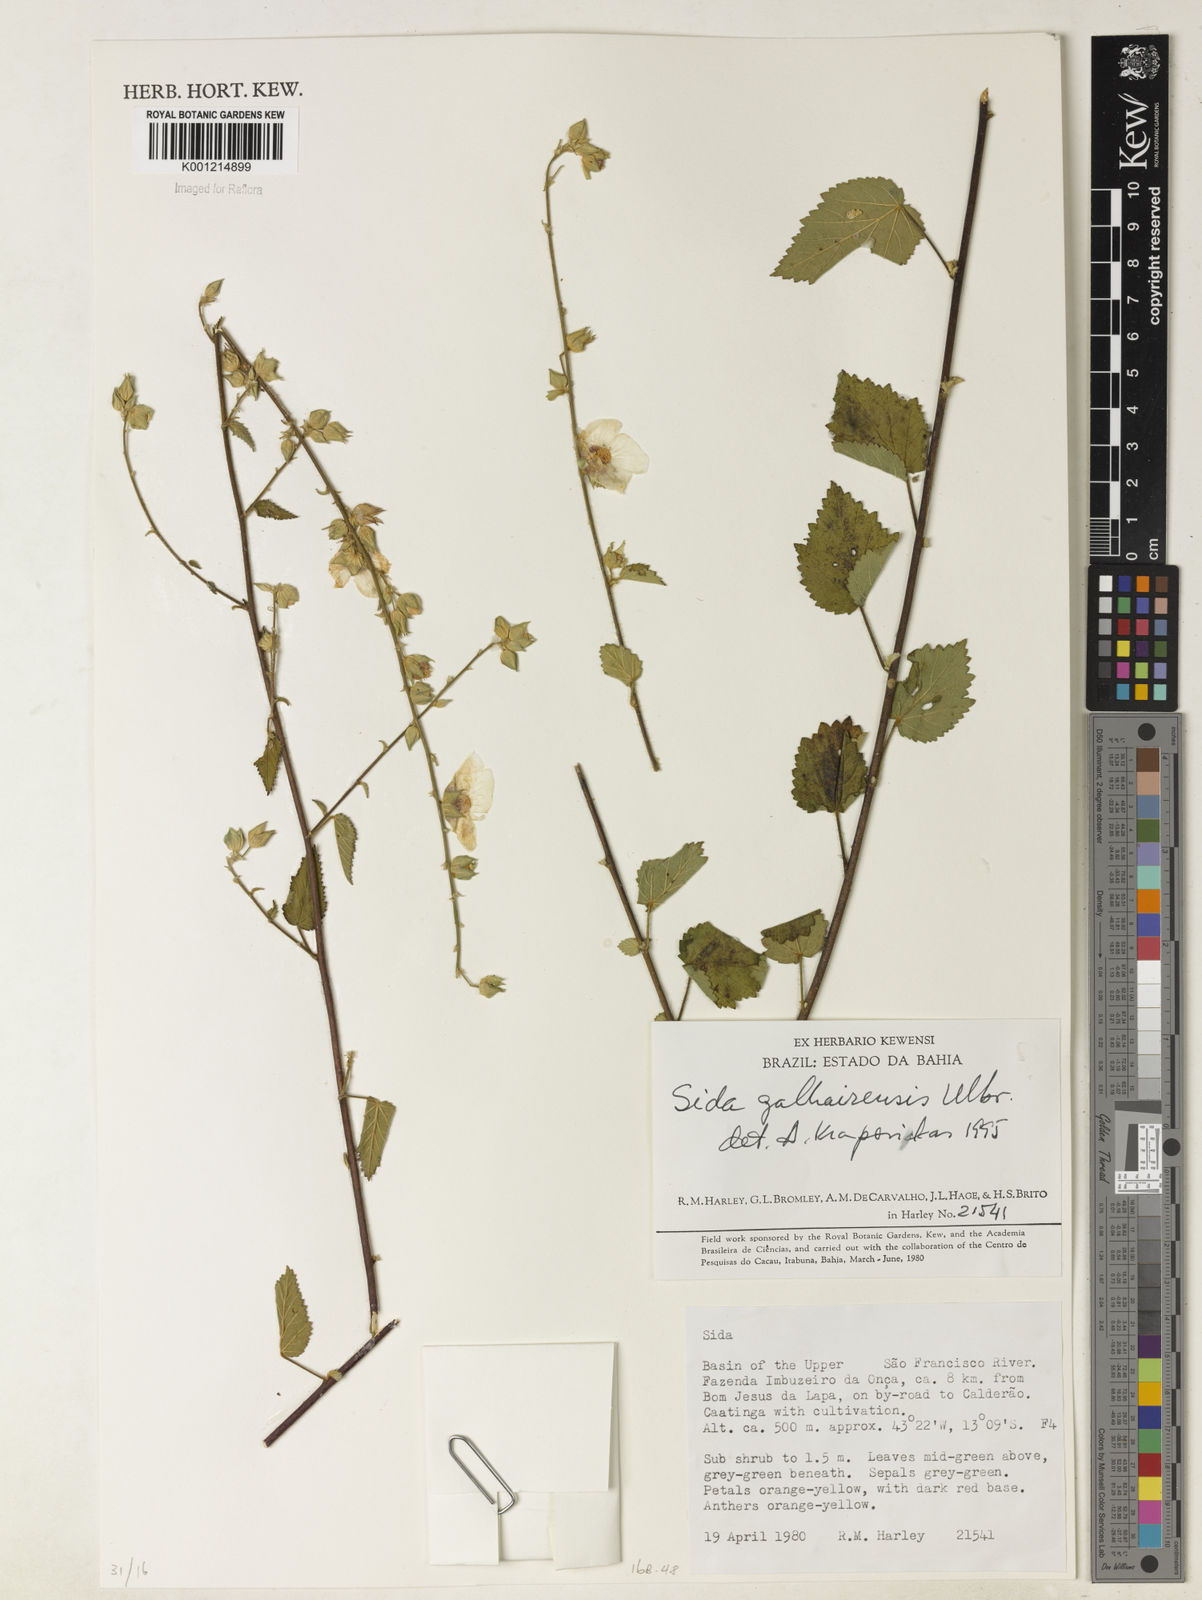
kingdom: Plantae
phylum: Tracheophyta
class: Magnoliopsida
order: Malvales
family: Malvaceae
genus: Sida
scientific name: Sida galheirensis
